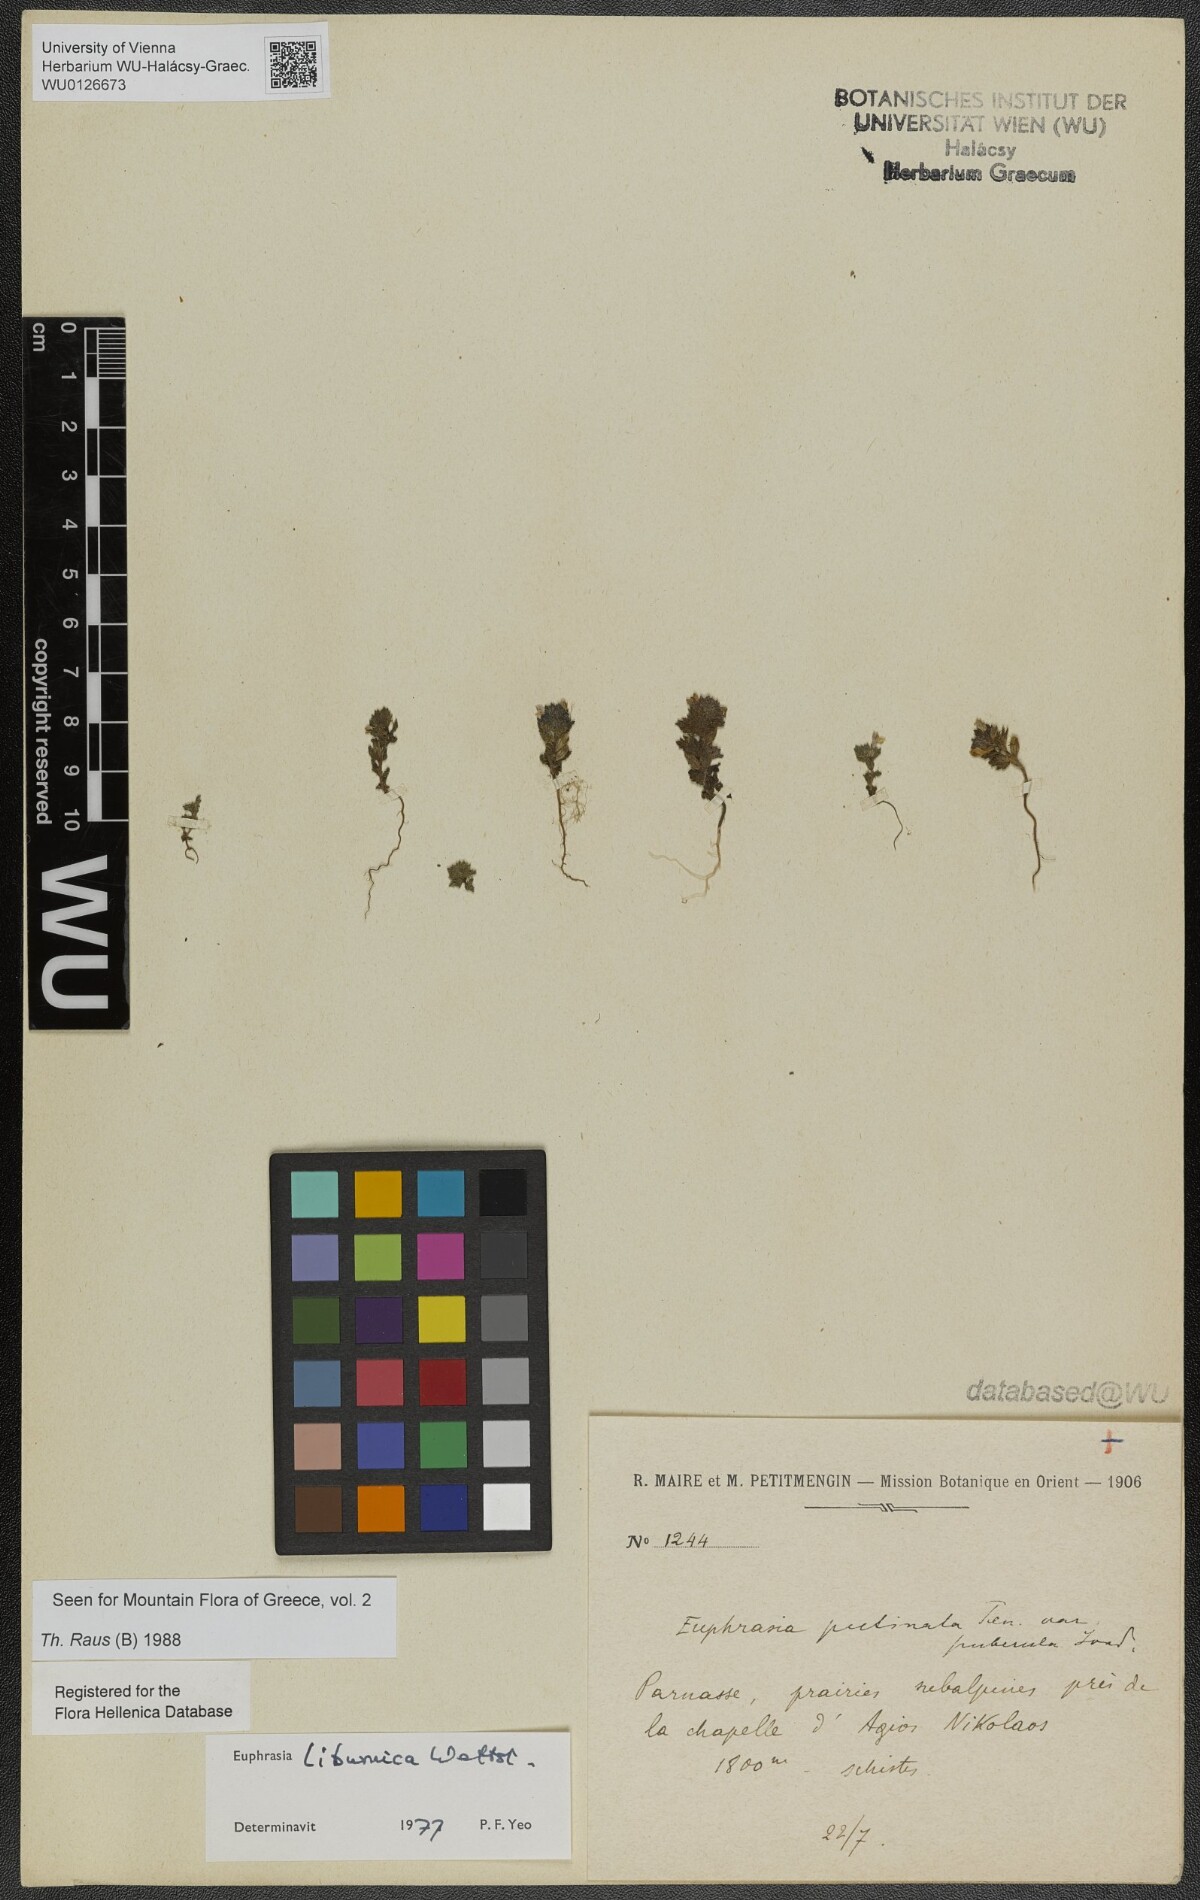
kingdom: Plantae
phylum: Tracheophyta
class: Magnoliopsida
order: Lamiales
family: Orobanchaceae
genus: Euphrasia
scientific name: Euphrasia liburnica
